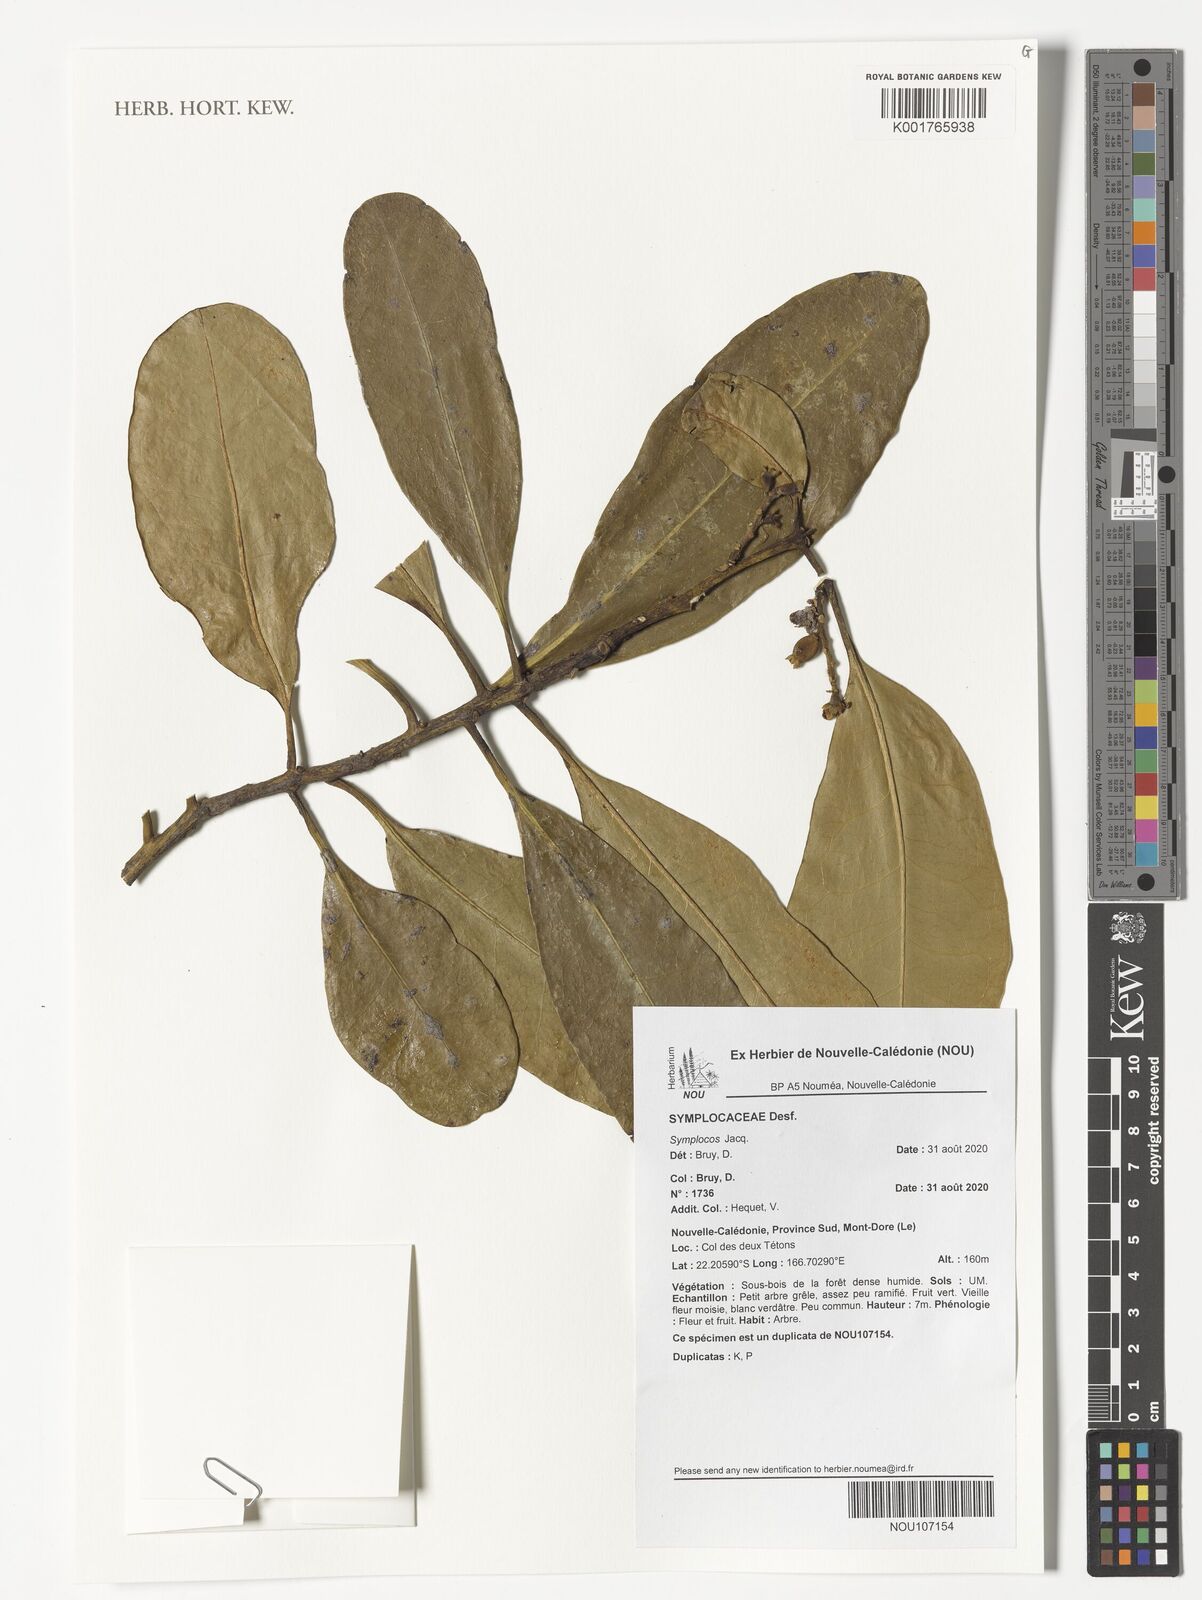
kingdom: Plantae
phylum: Tracheophyta
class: Magnoliopsida
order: Ericales
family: Symplocaceae
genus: Symplocos
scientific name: Symplocos
